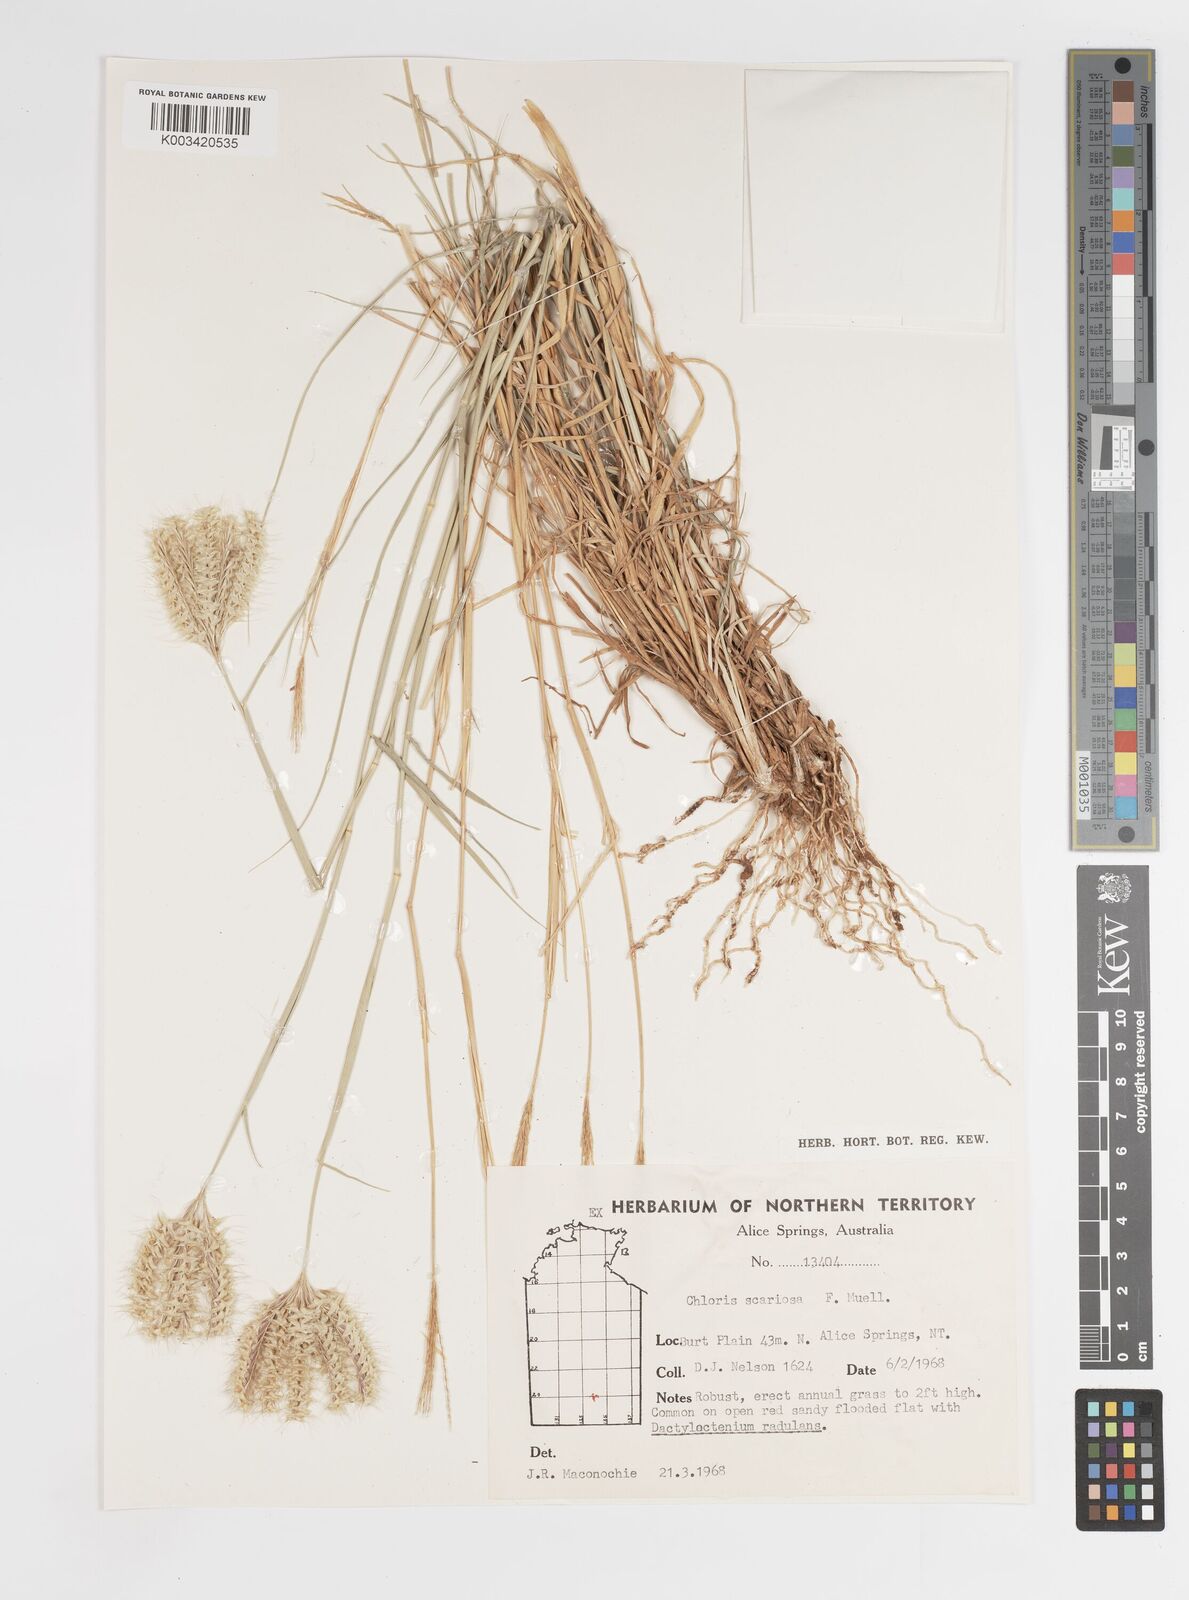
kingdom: Plantae
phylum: Tracheophyta
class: Liliopsida
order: Poales
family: Poaceae
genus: Oxychloris
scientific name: Oxychloris scariosa
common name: Winged windmill grass
